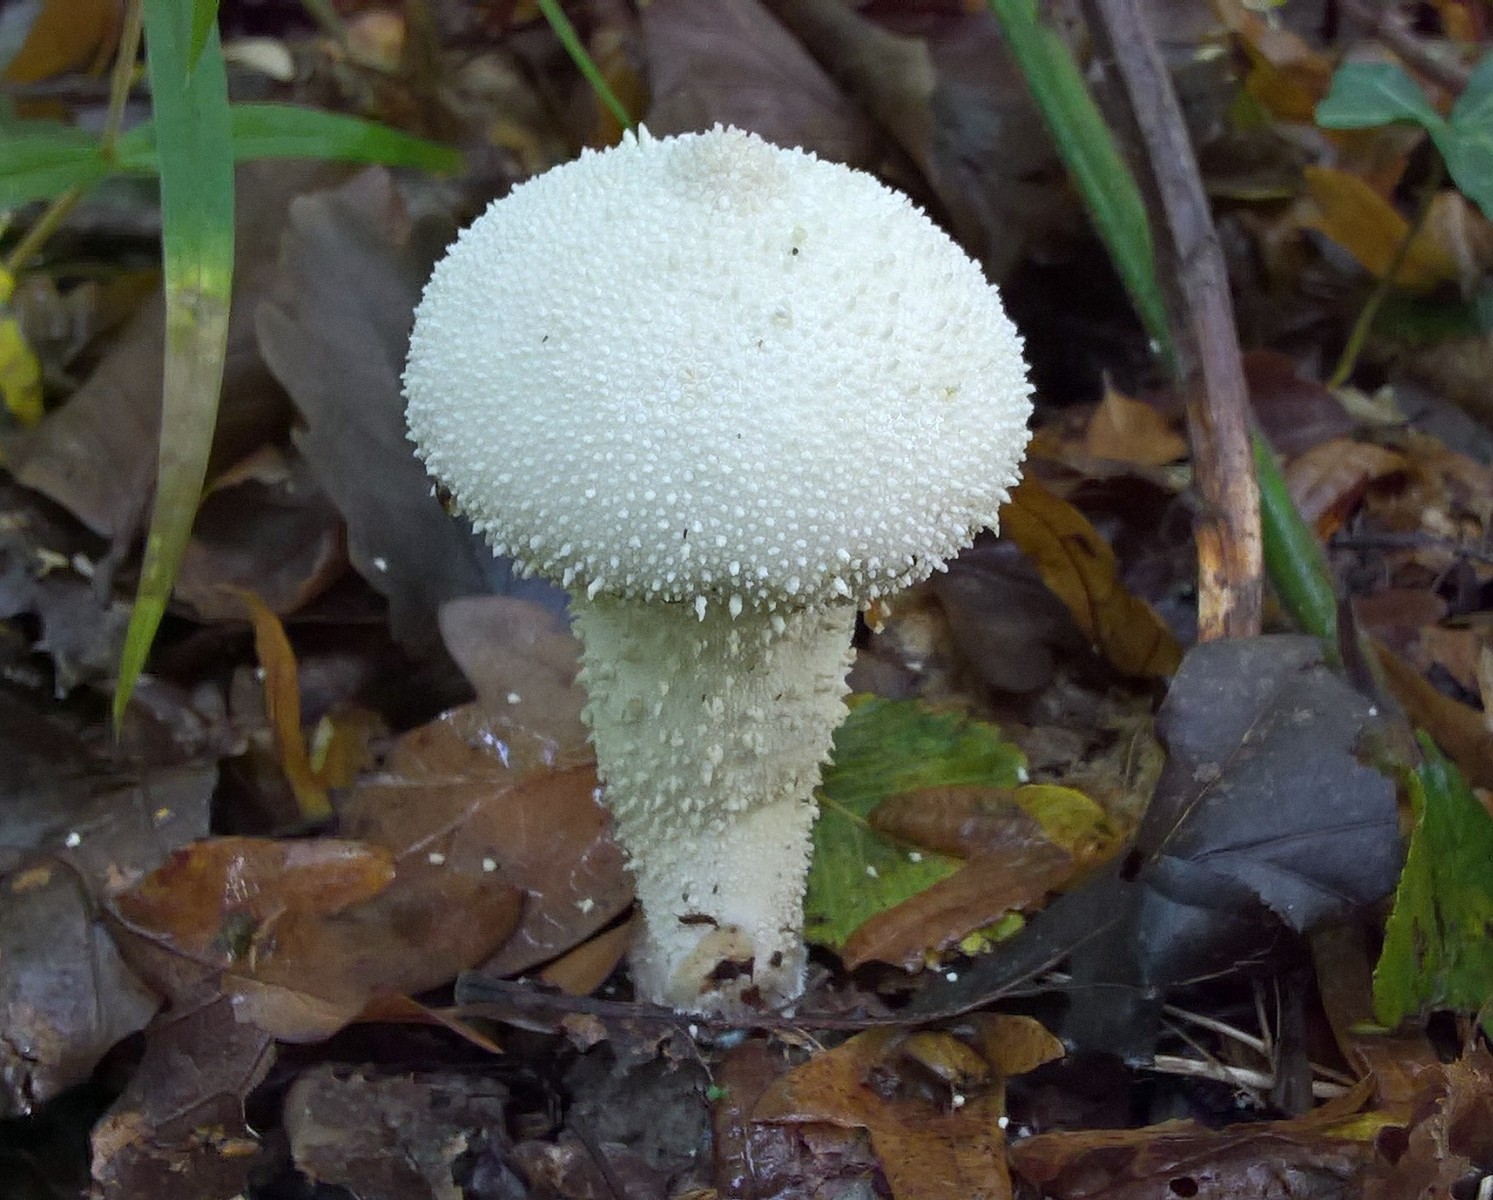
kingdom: Fungi
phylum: Basidiomycota
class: Agaricomycetes
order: Agaricales
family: Lycoperdaceae
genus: Lycoperdon
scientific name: Lycoperdon perlatum
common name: krystal-støvbold
